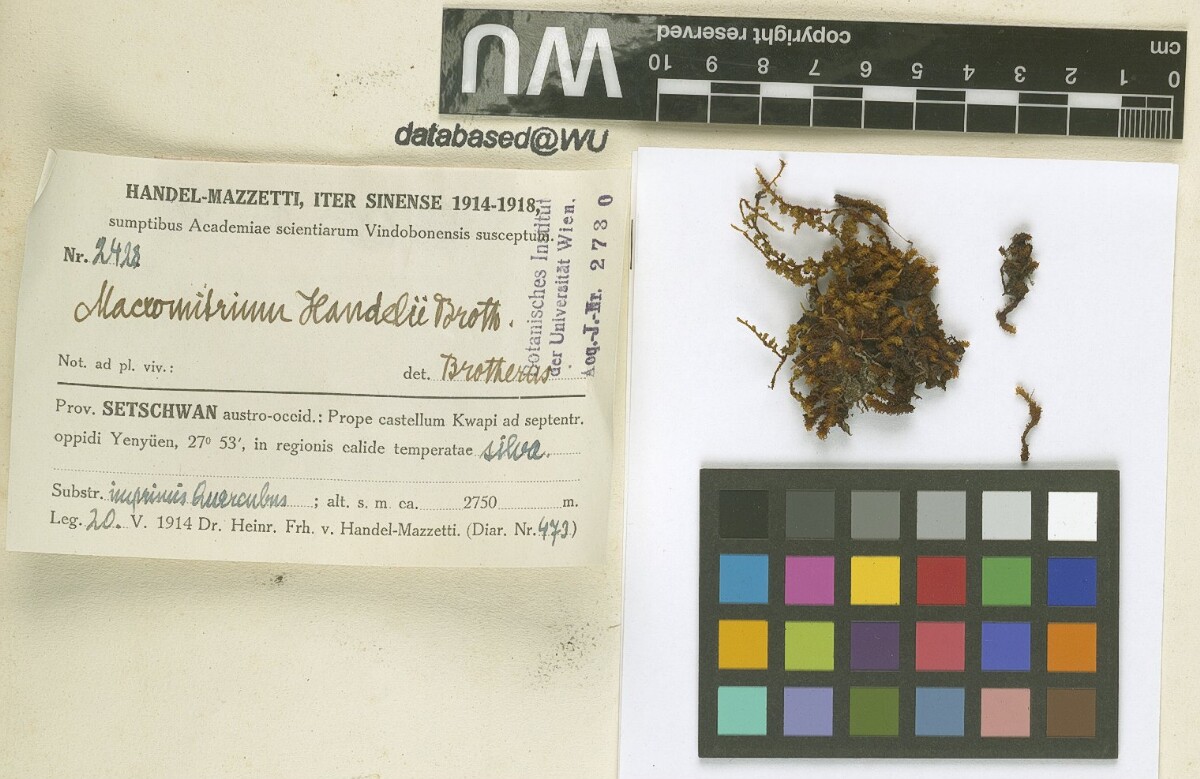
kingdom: Plantae
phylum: Bryophyta
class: Bryopsida
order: Orthotrichales
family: Orthotrichaceae
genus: Macromitrium
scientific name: Macromitrium cavaleriei
